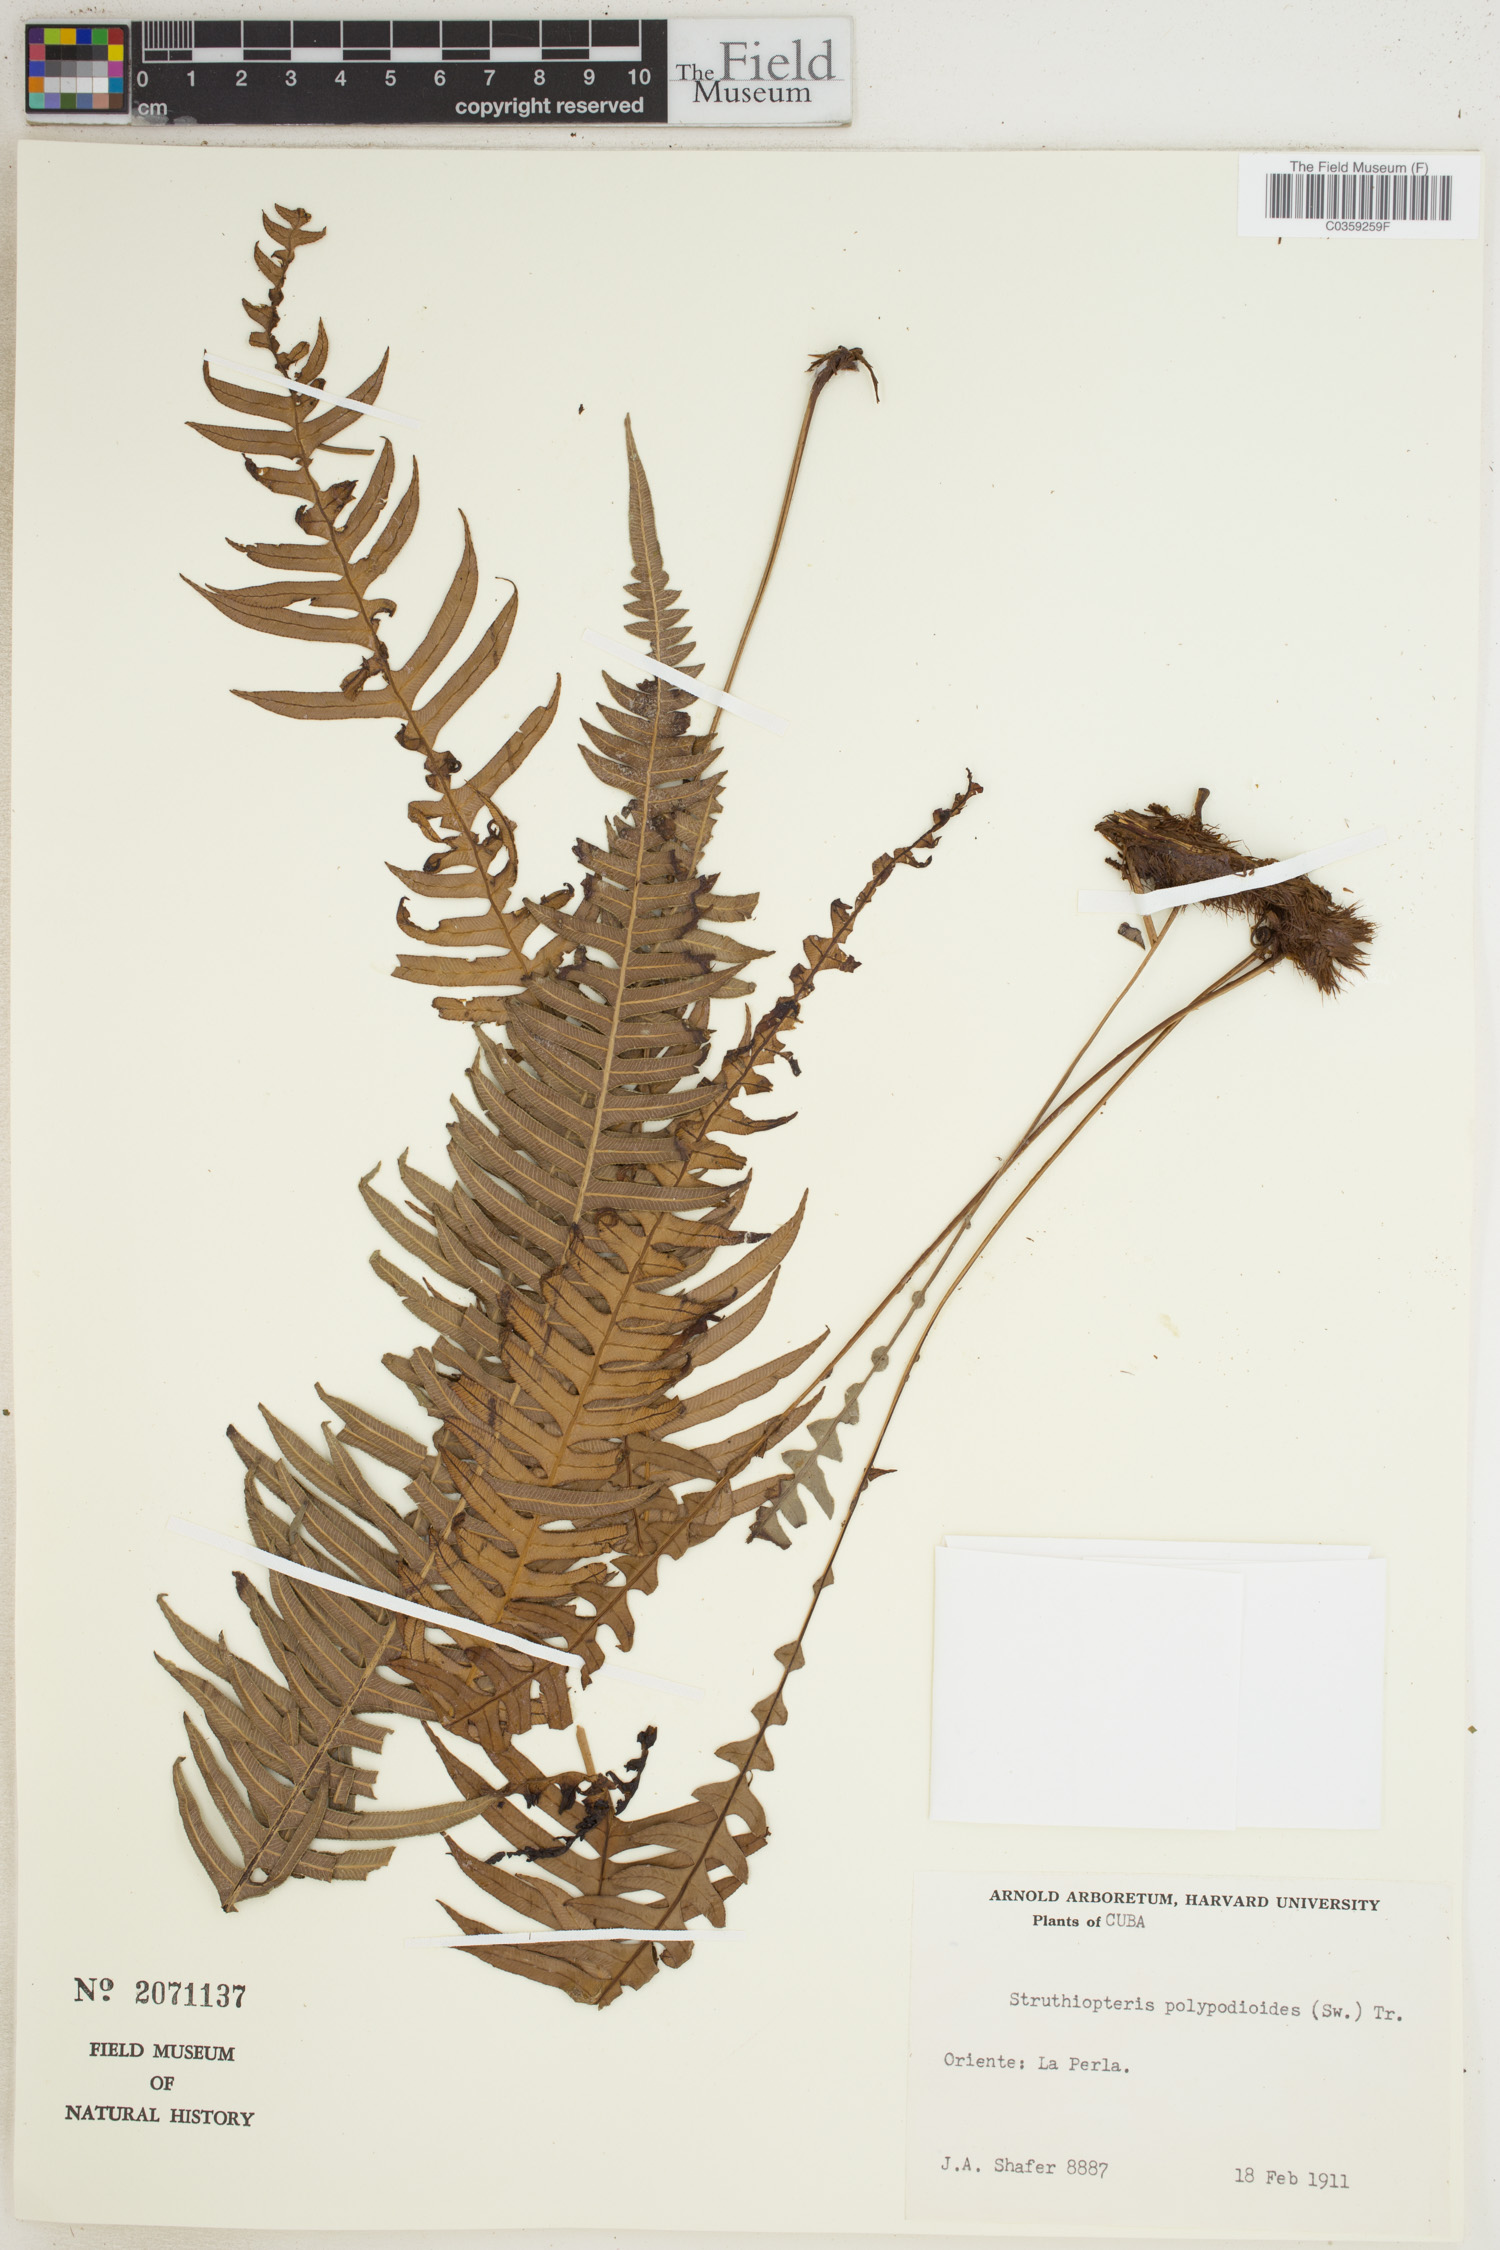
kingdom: Plantae
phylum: Tracheophyta
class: Polypodiopsida
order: Polypodiales
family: Blechnaceae
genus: Lomaridium
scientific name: Lomaridium fragile
